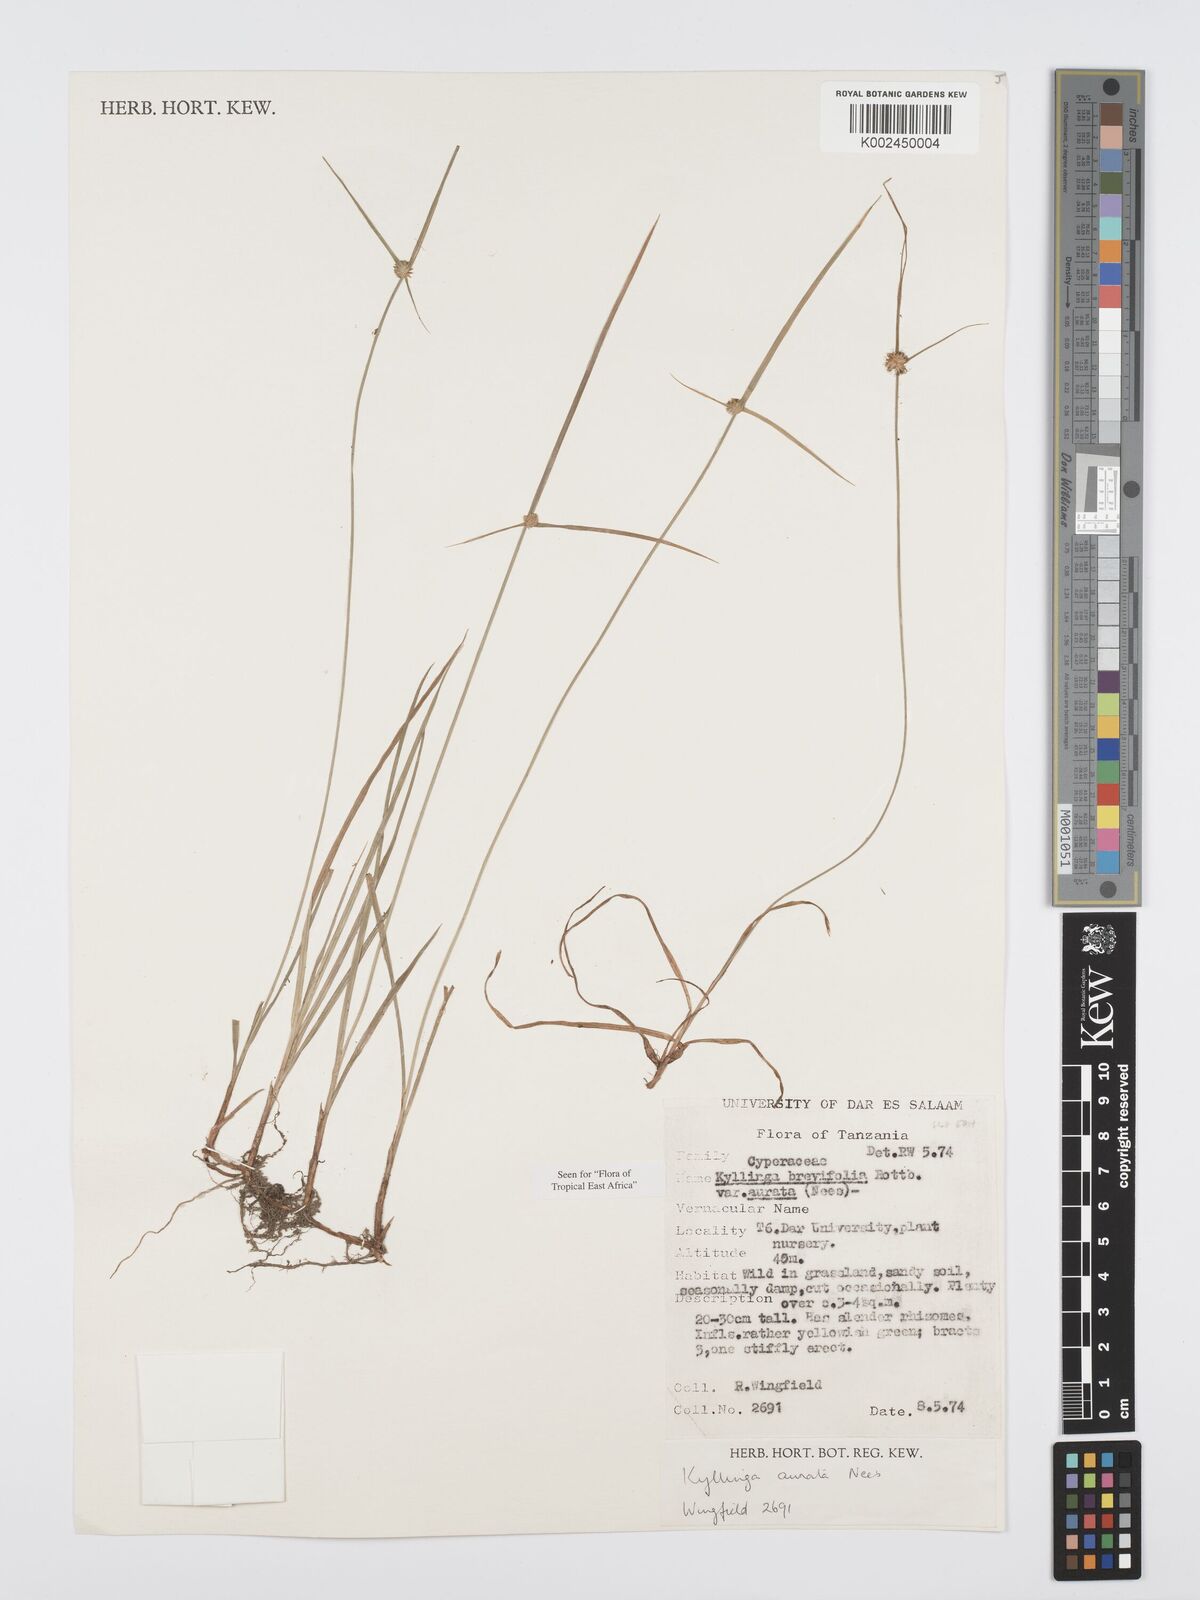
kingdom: Plantae
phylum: Tracheophyta
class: Liliopsida
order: Poales
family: Cyperaceae
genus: Cyperus
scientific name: Cyperus brevifolius
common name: Globe kyllinga
